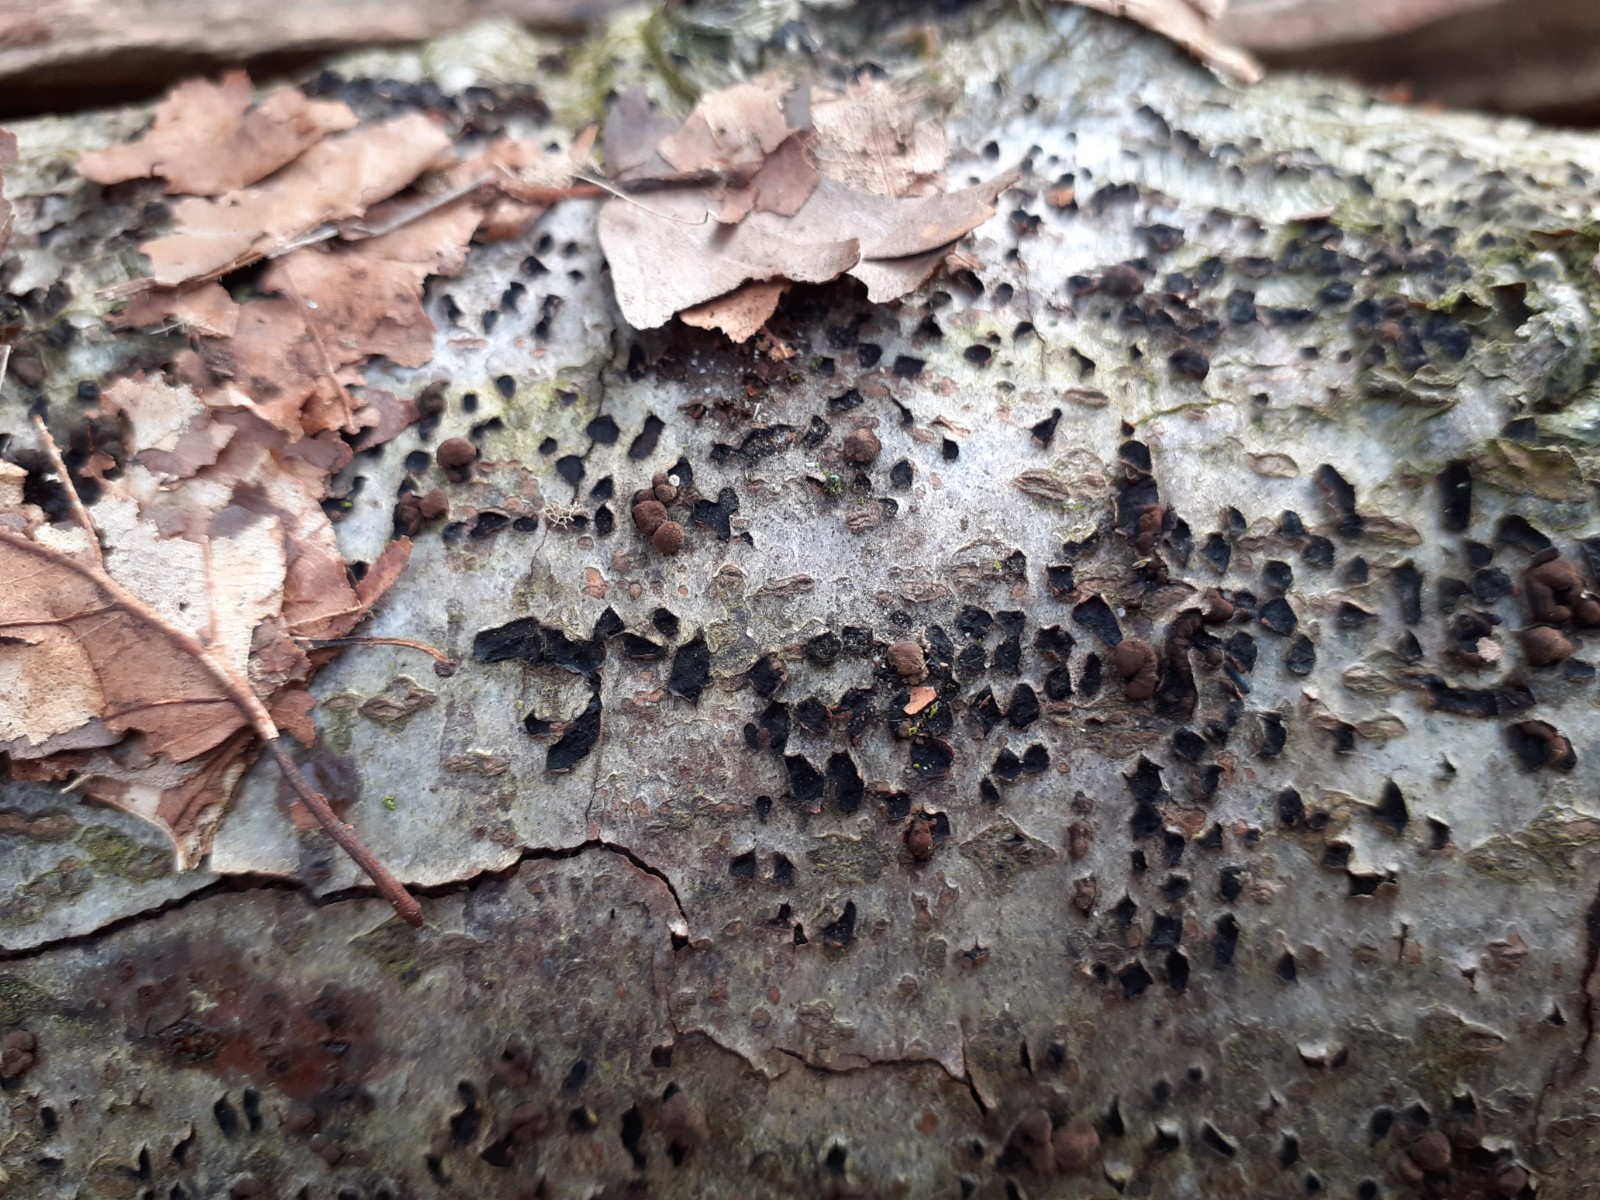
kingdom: Fungi
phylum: Ascomycota
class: Sordariomycetes
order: Xylariales
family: Hypoxylaceae
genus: Hypoxylon
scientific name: Hypoxylon fragiforme
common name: kuljordbær
